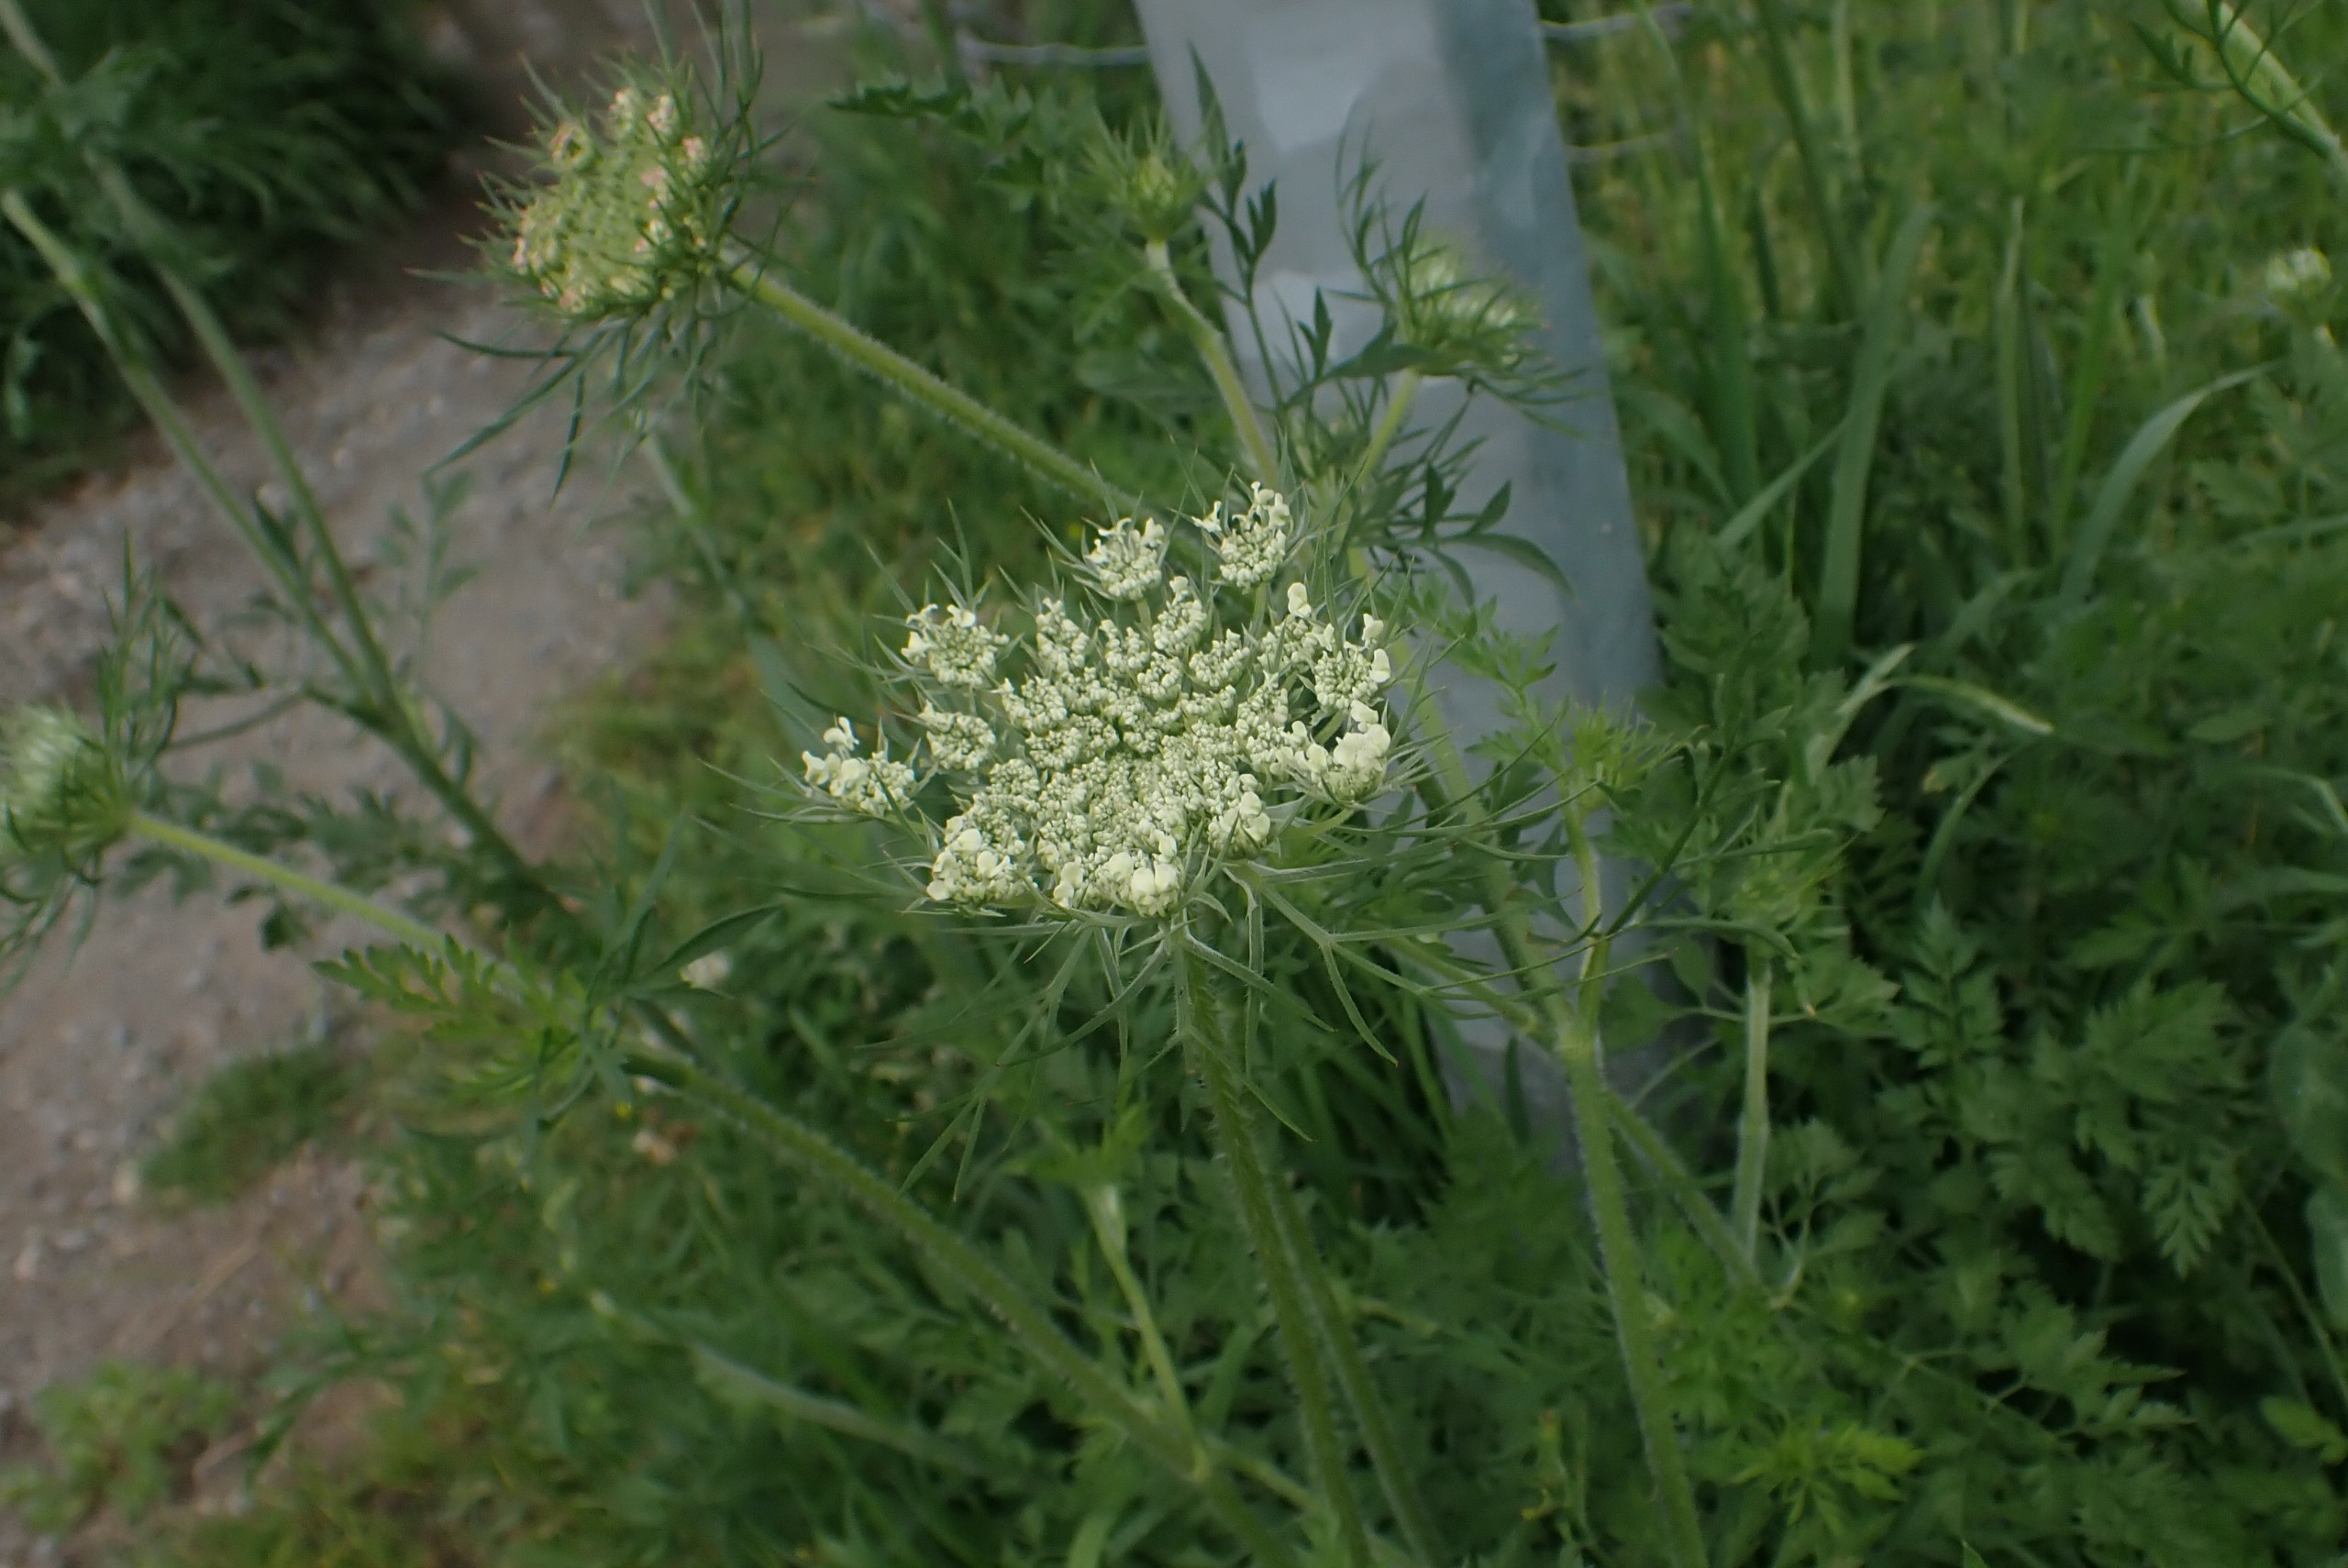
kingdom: Plantae
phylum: Tracheophyta
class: Magnoliopsida
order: Apiales
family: Apiaceae
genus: Daucus
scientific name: Daucus carota
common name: Gulerod
